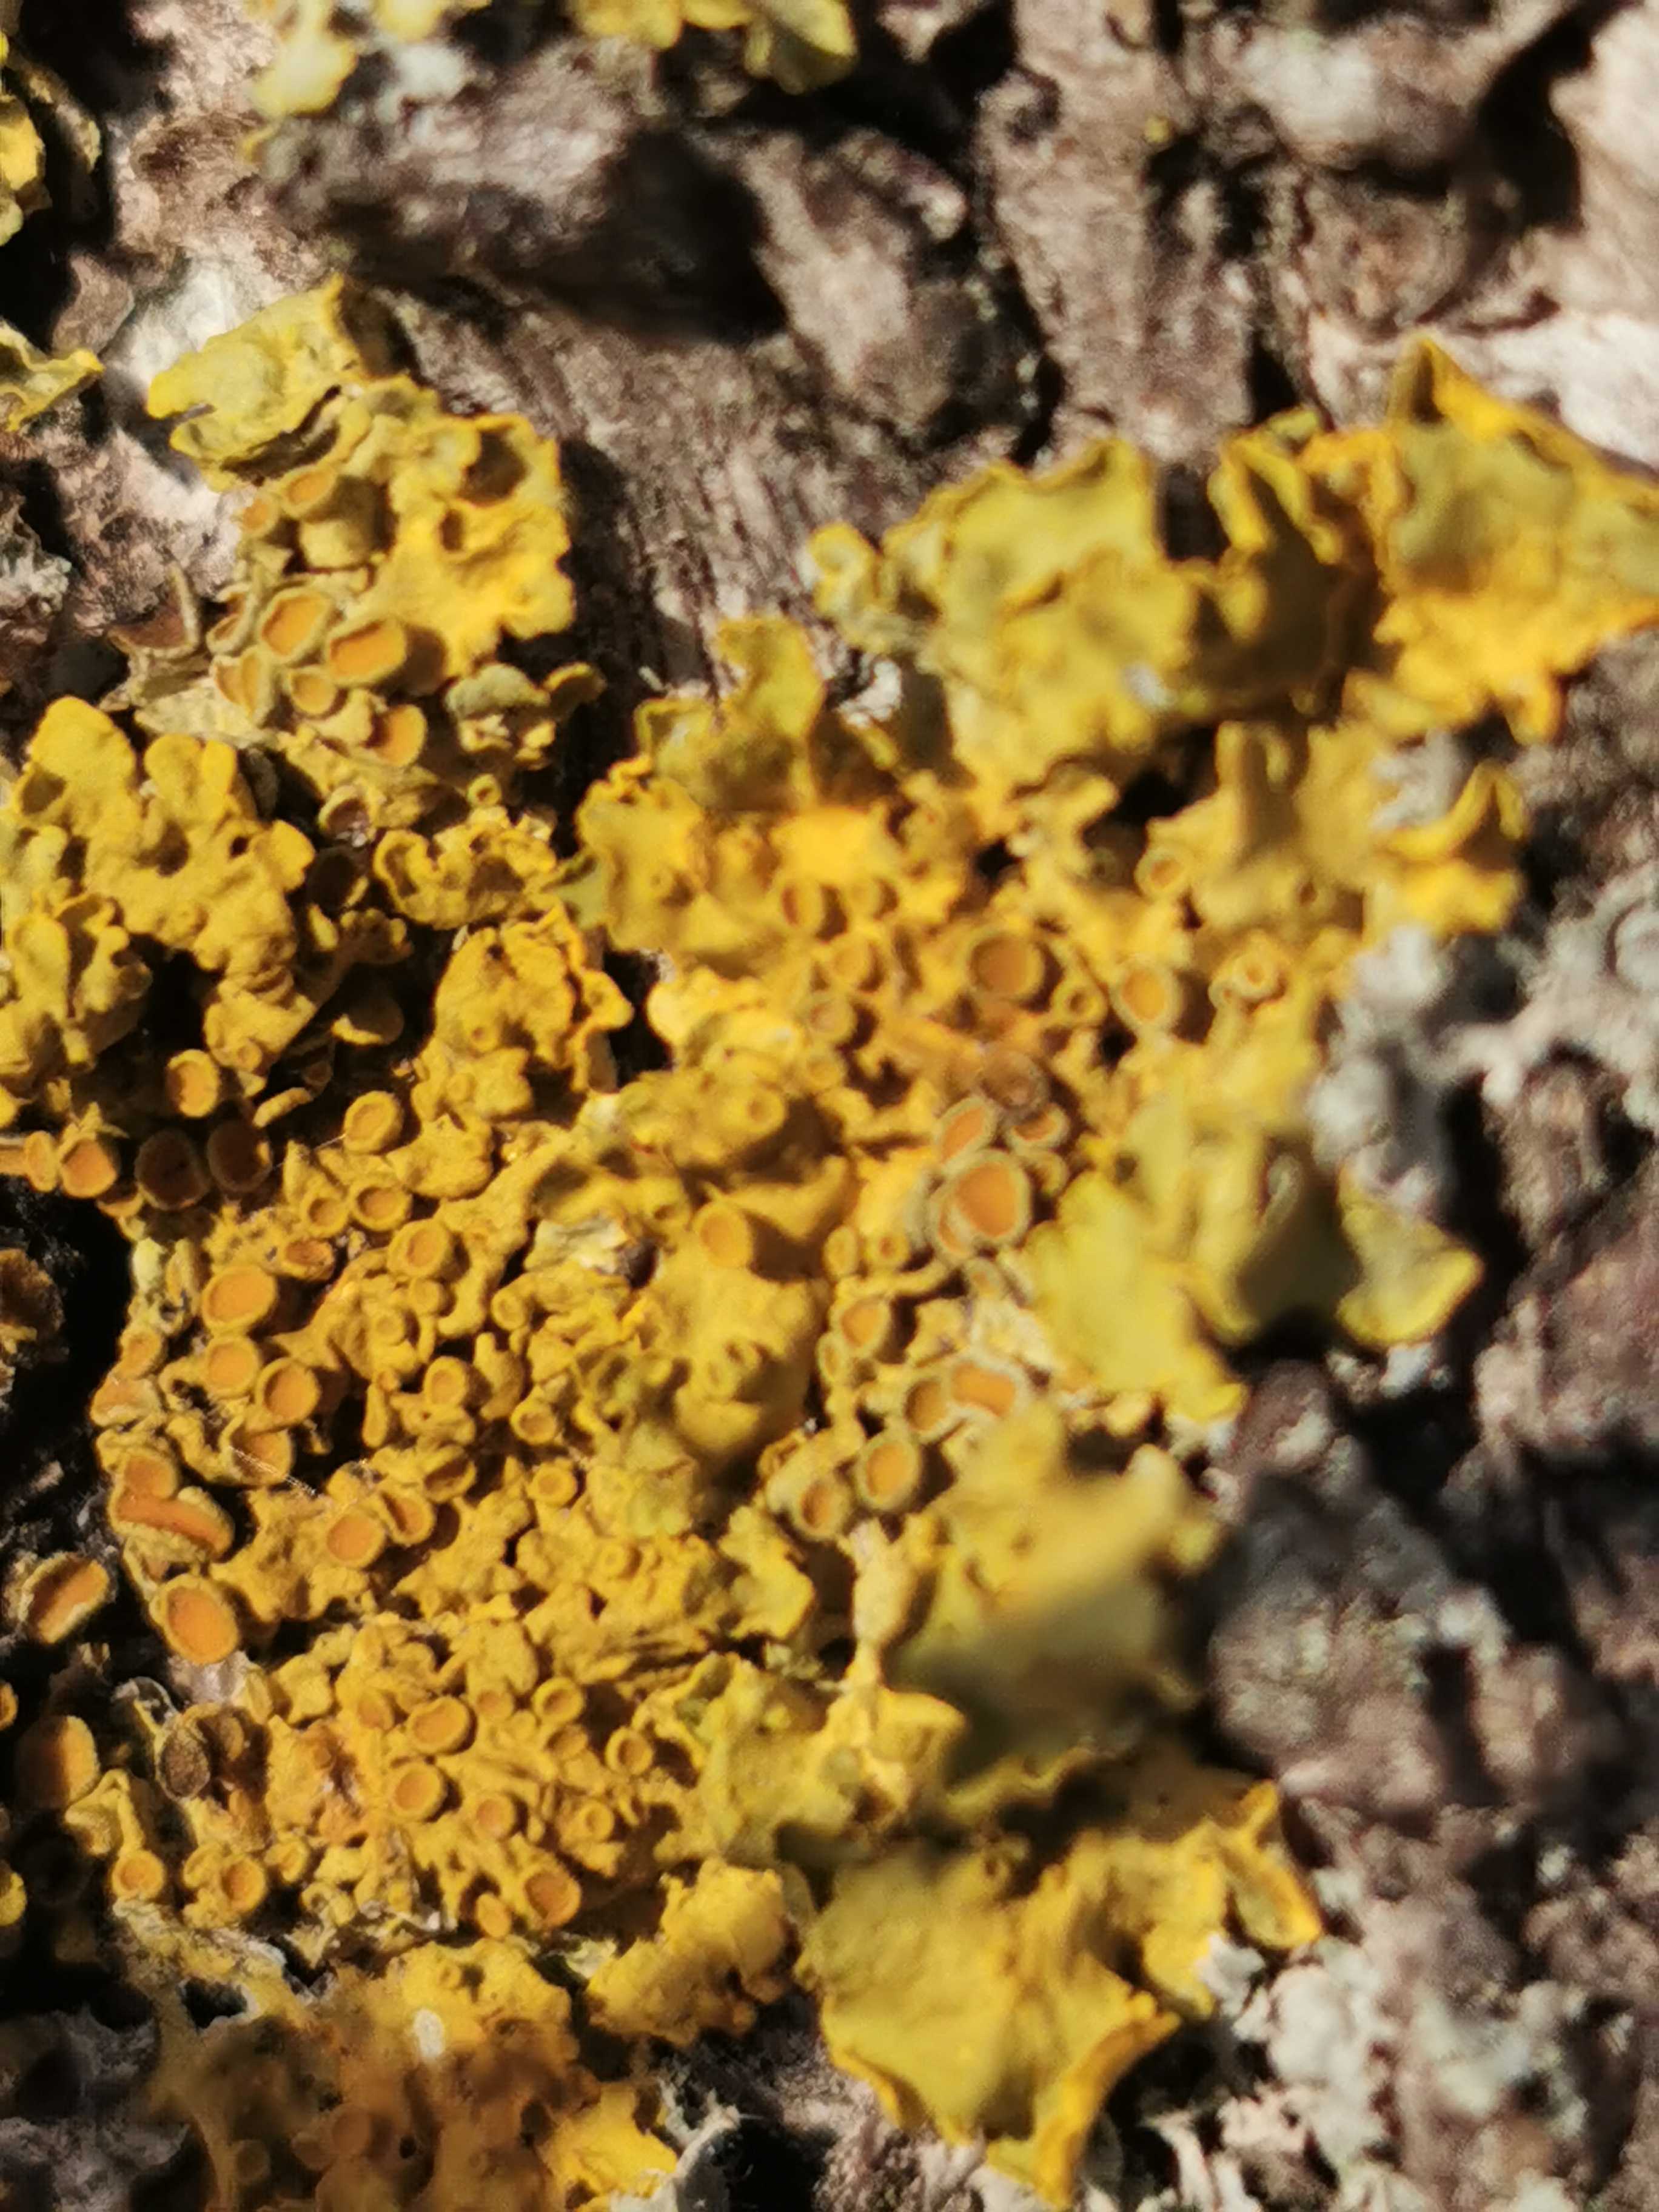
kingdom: Fungi
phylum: Ascomycota
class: Lecanoromycetes
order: Teloschistales
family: Teloschistaceae
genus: Xanthoria
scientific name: Xanthoria parietina
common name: almindelig væggelav
